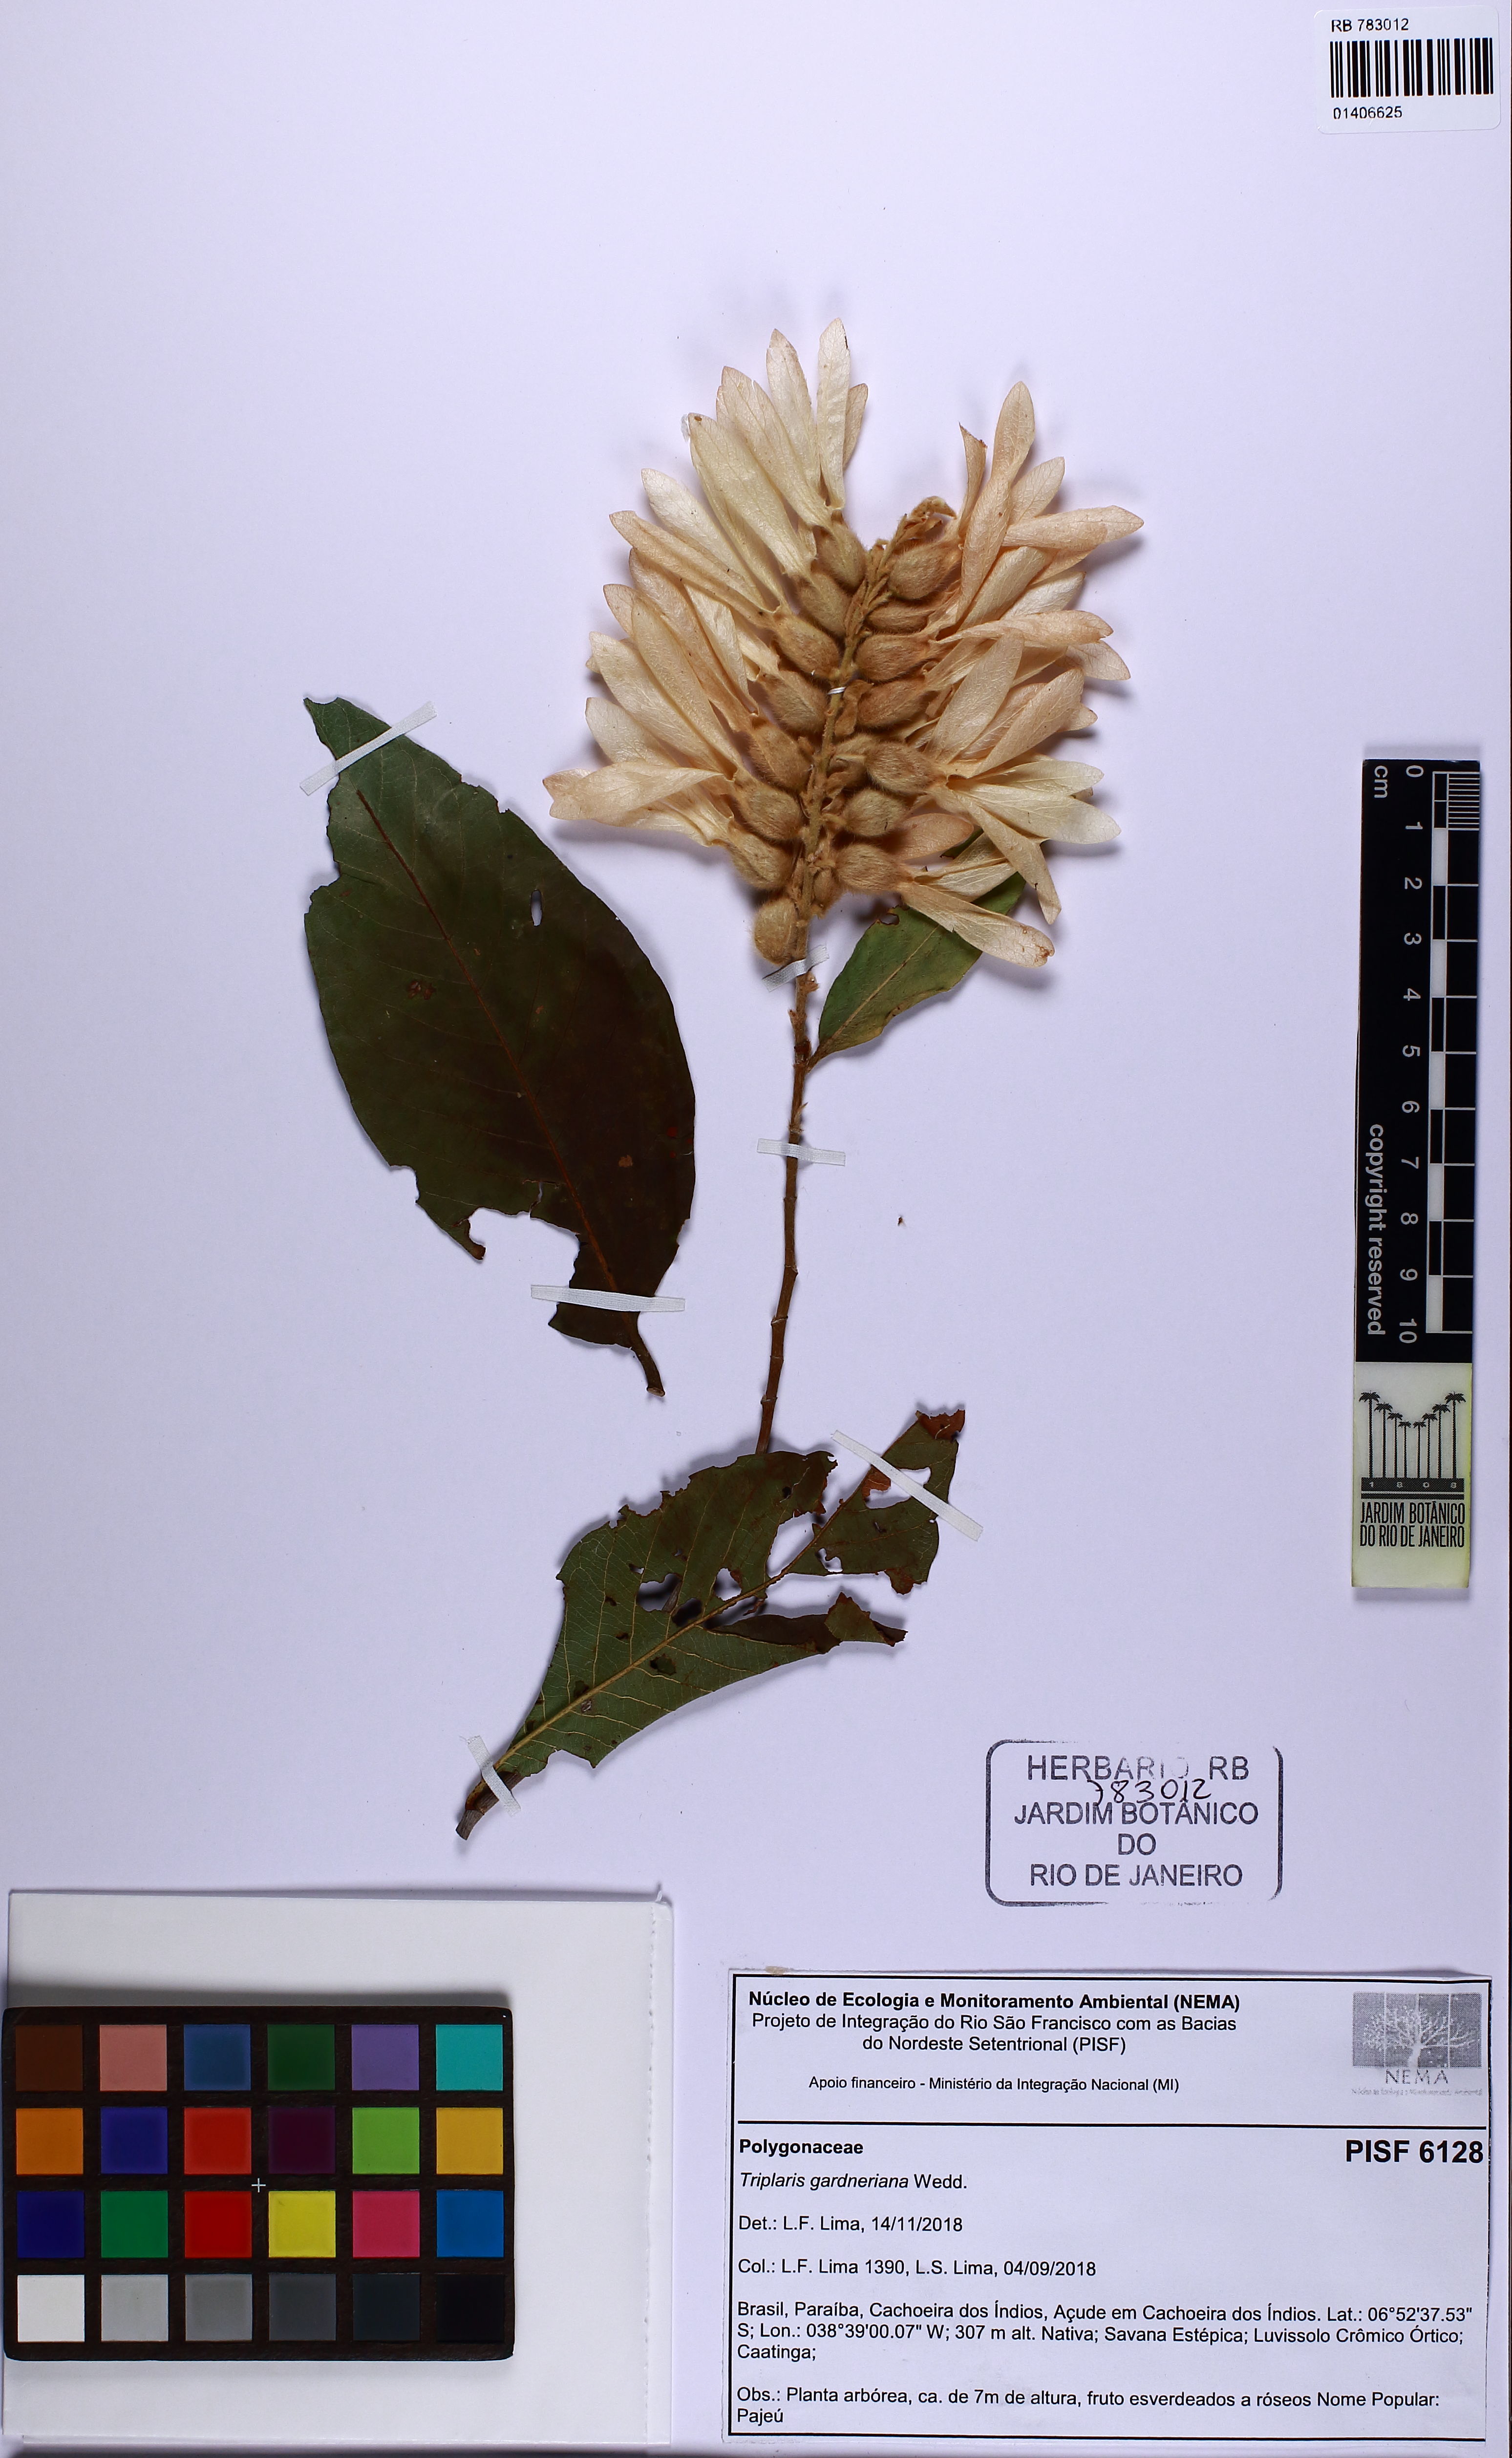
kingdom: Plantae
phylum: Tracheophyta
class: Magnoliopsida
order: Caryophyllales
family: Polygonaceae
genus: Triplaris
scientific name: Triplaris gardneriana
